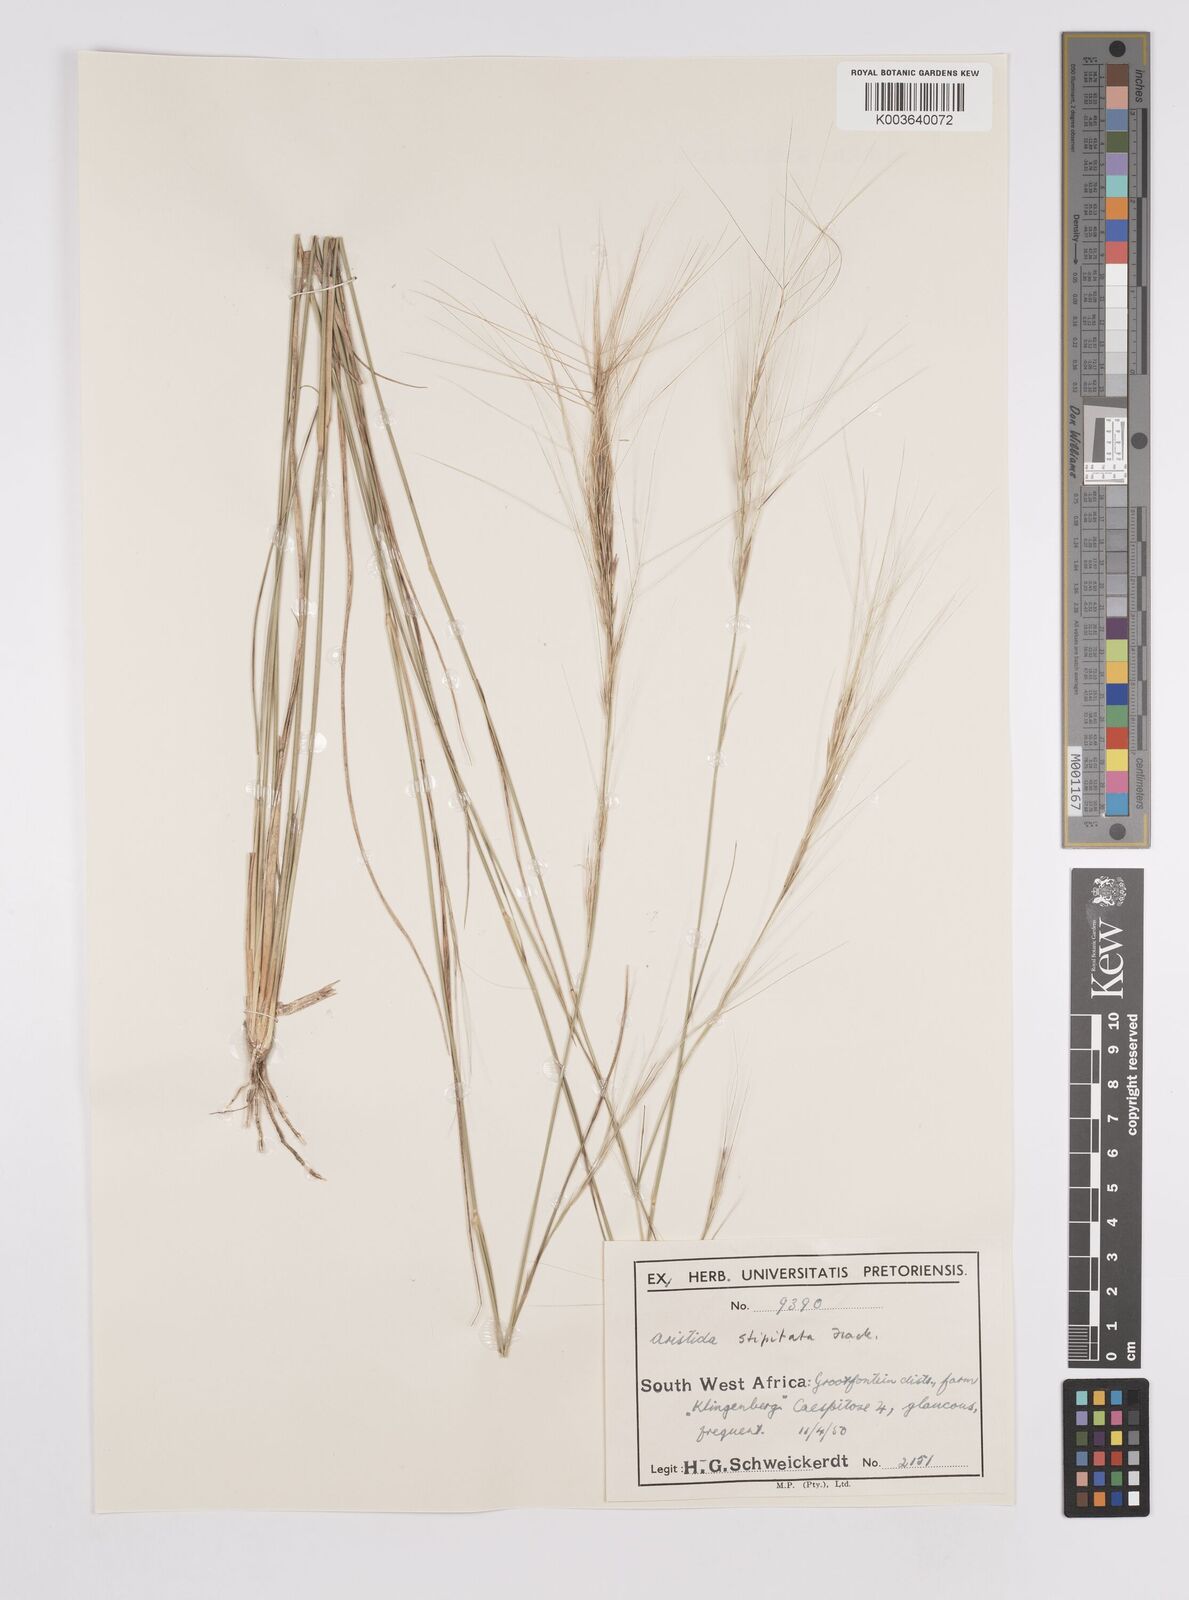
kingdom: Plantae
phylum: Tracheophyta
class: Liliopsida
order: Poales
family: Poaceae
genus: Aristida
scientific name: Aristida stipitata
